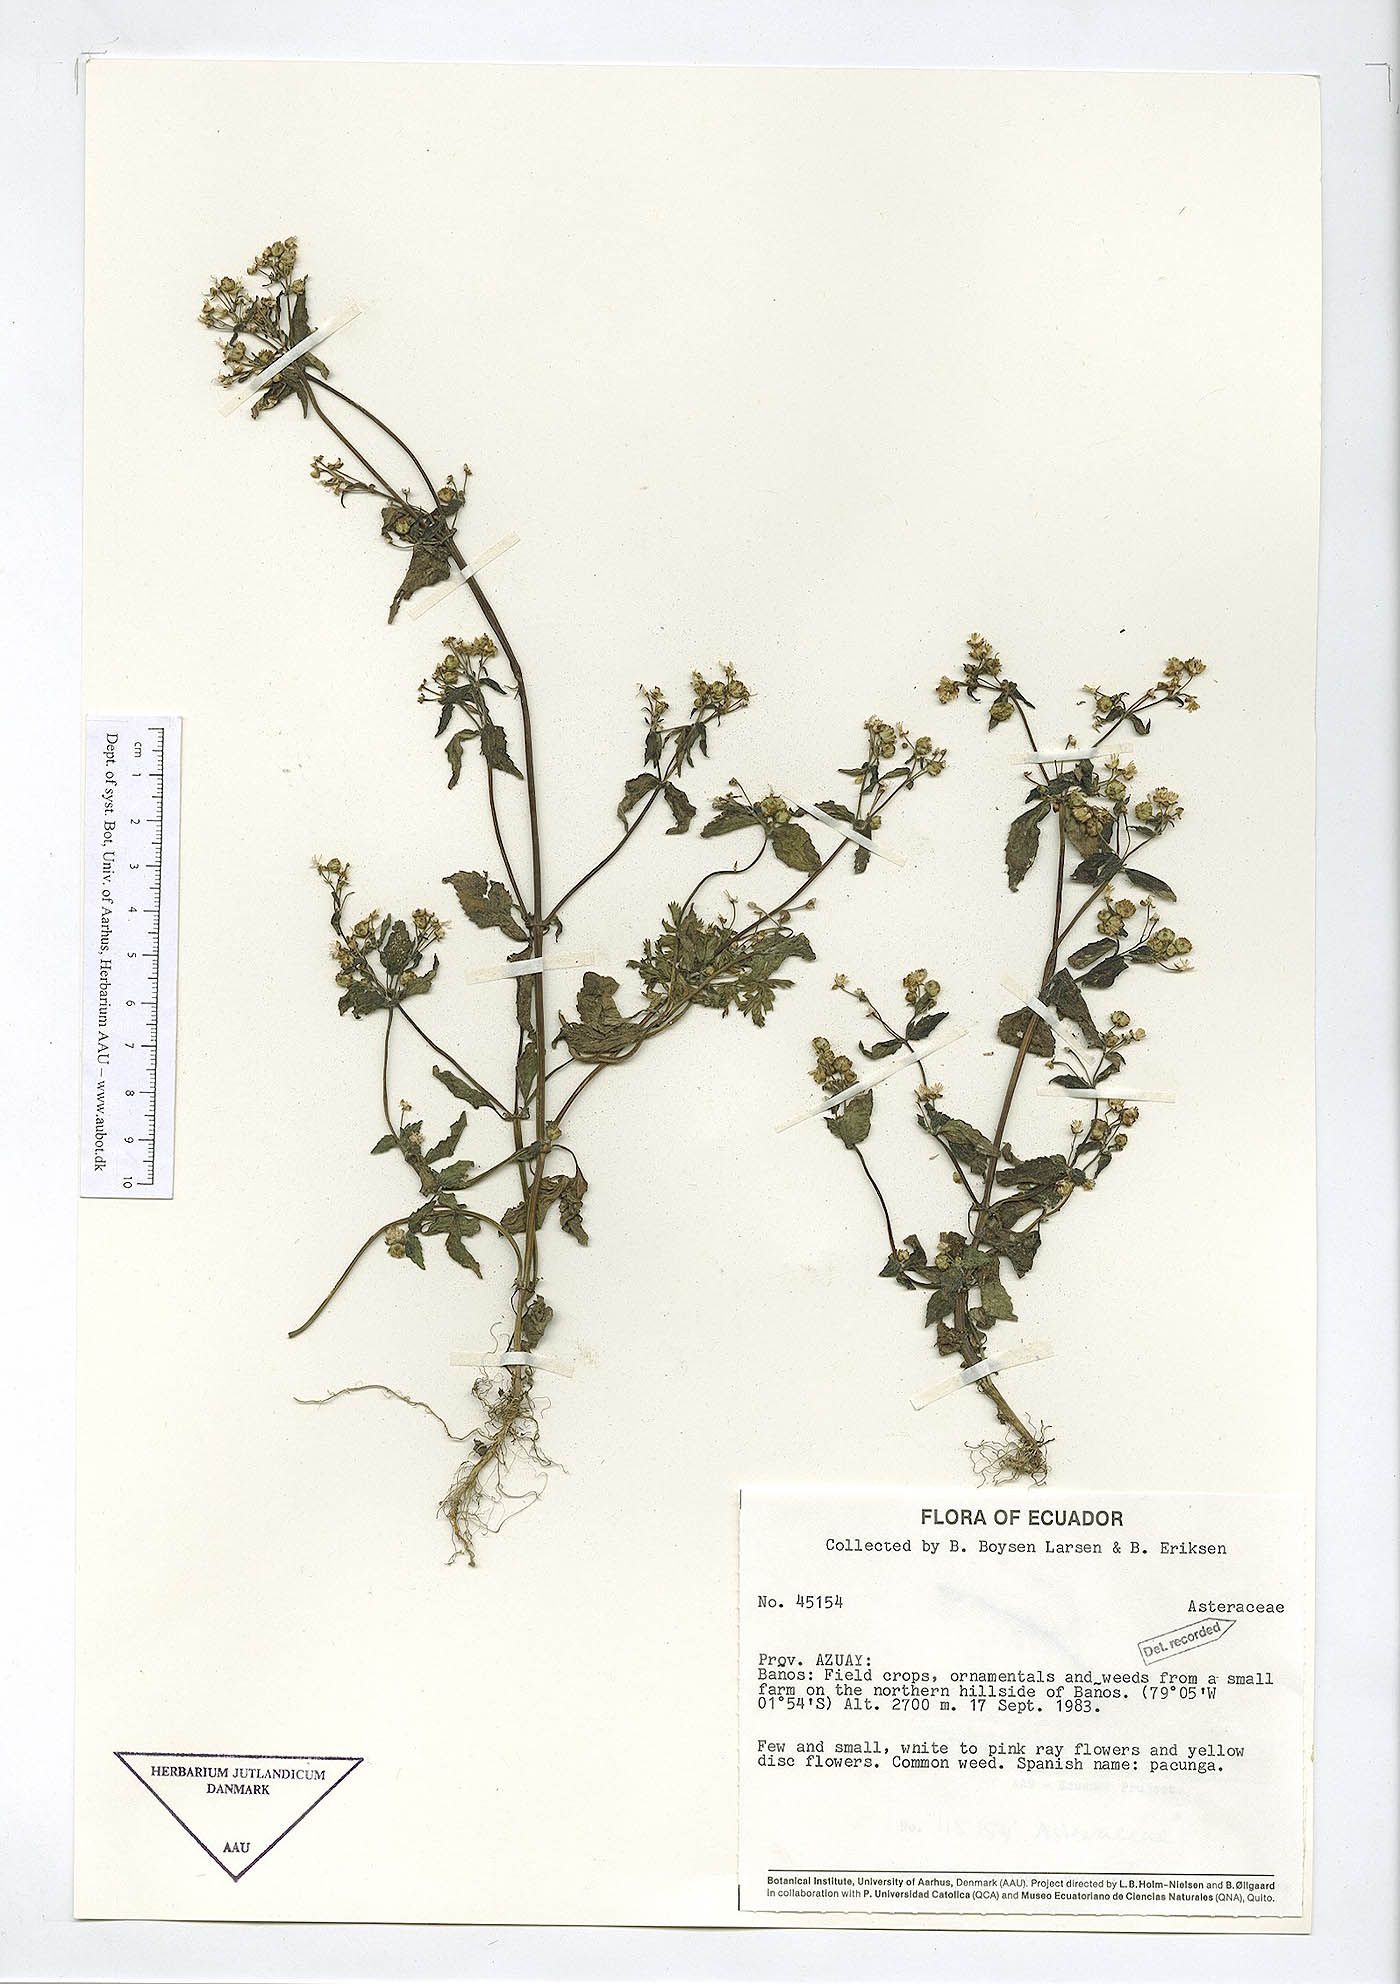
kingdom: Plantae
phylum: Tracheophyta
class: Magnoliopsida
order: Asterales
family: Asteraceae
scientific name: Asteraceae
